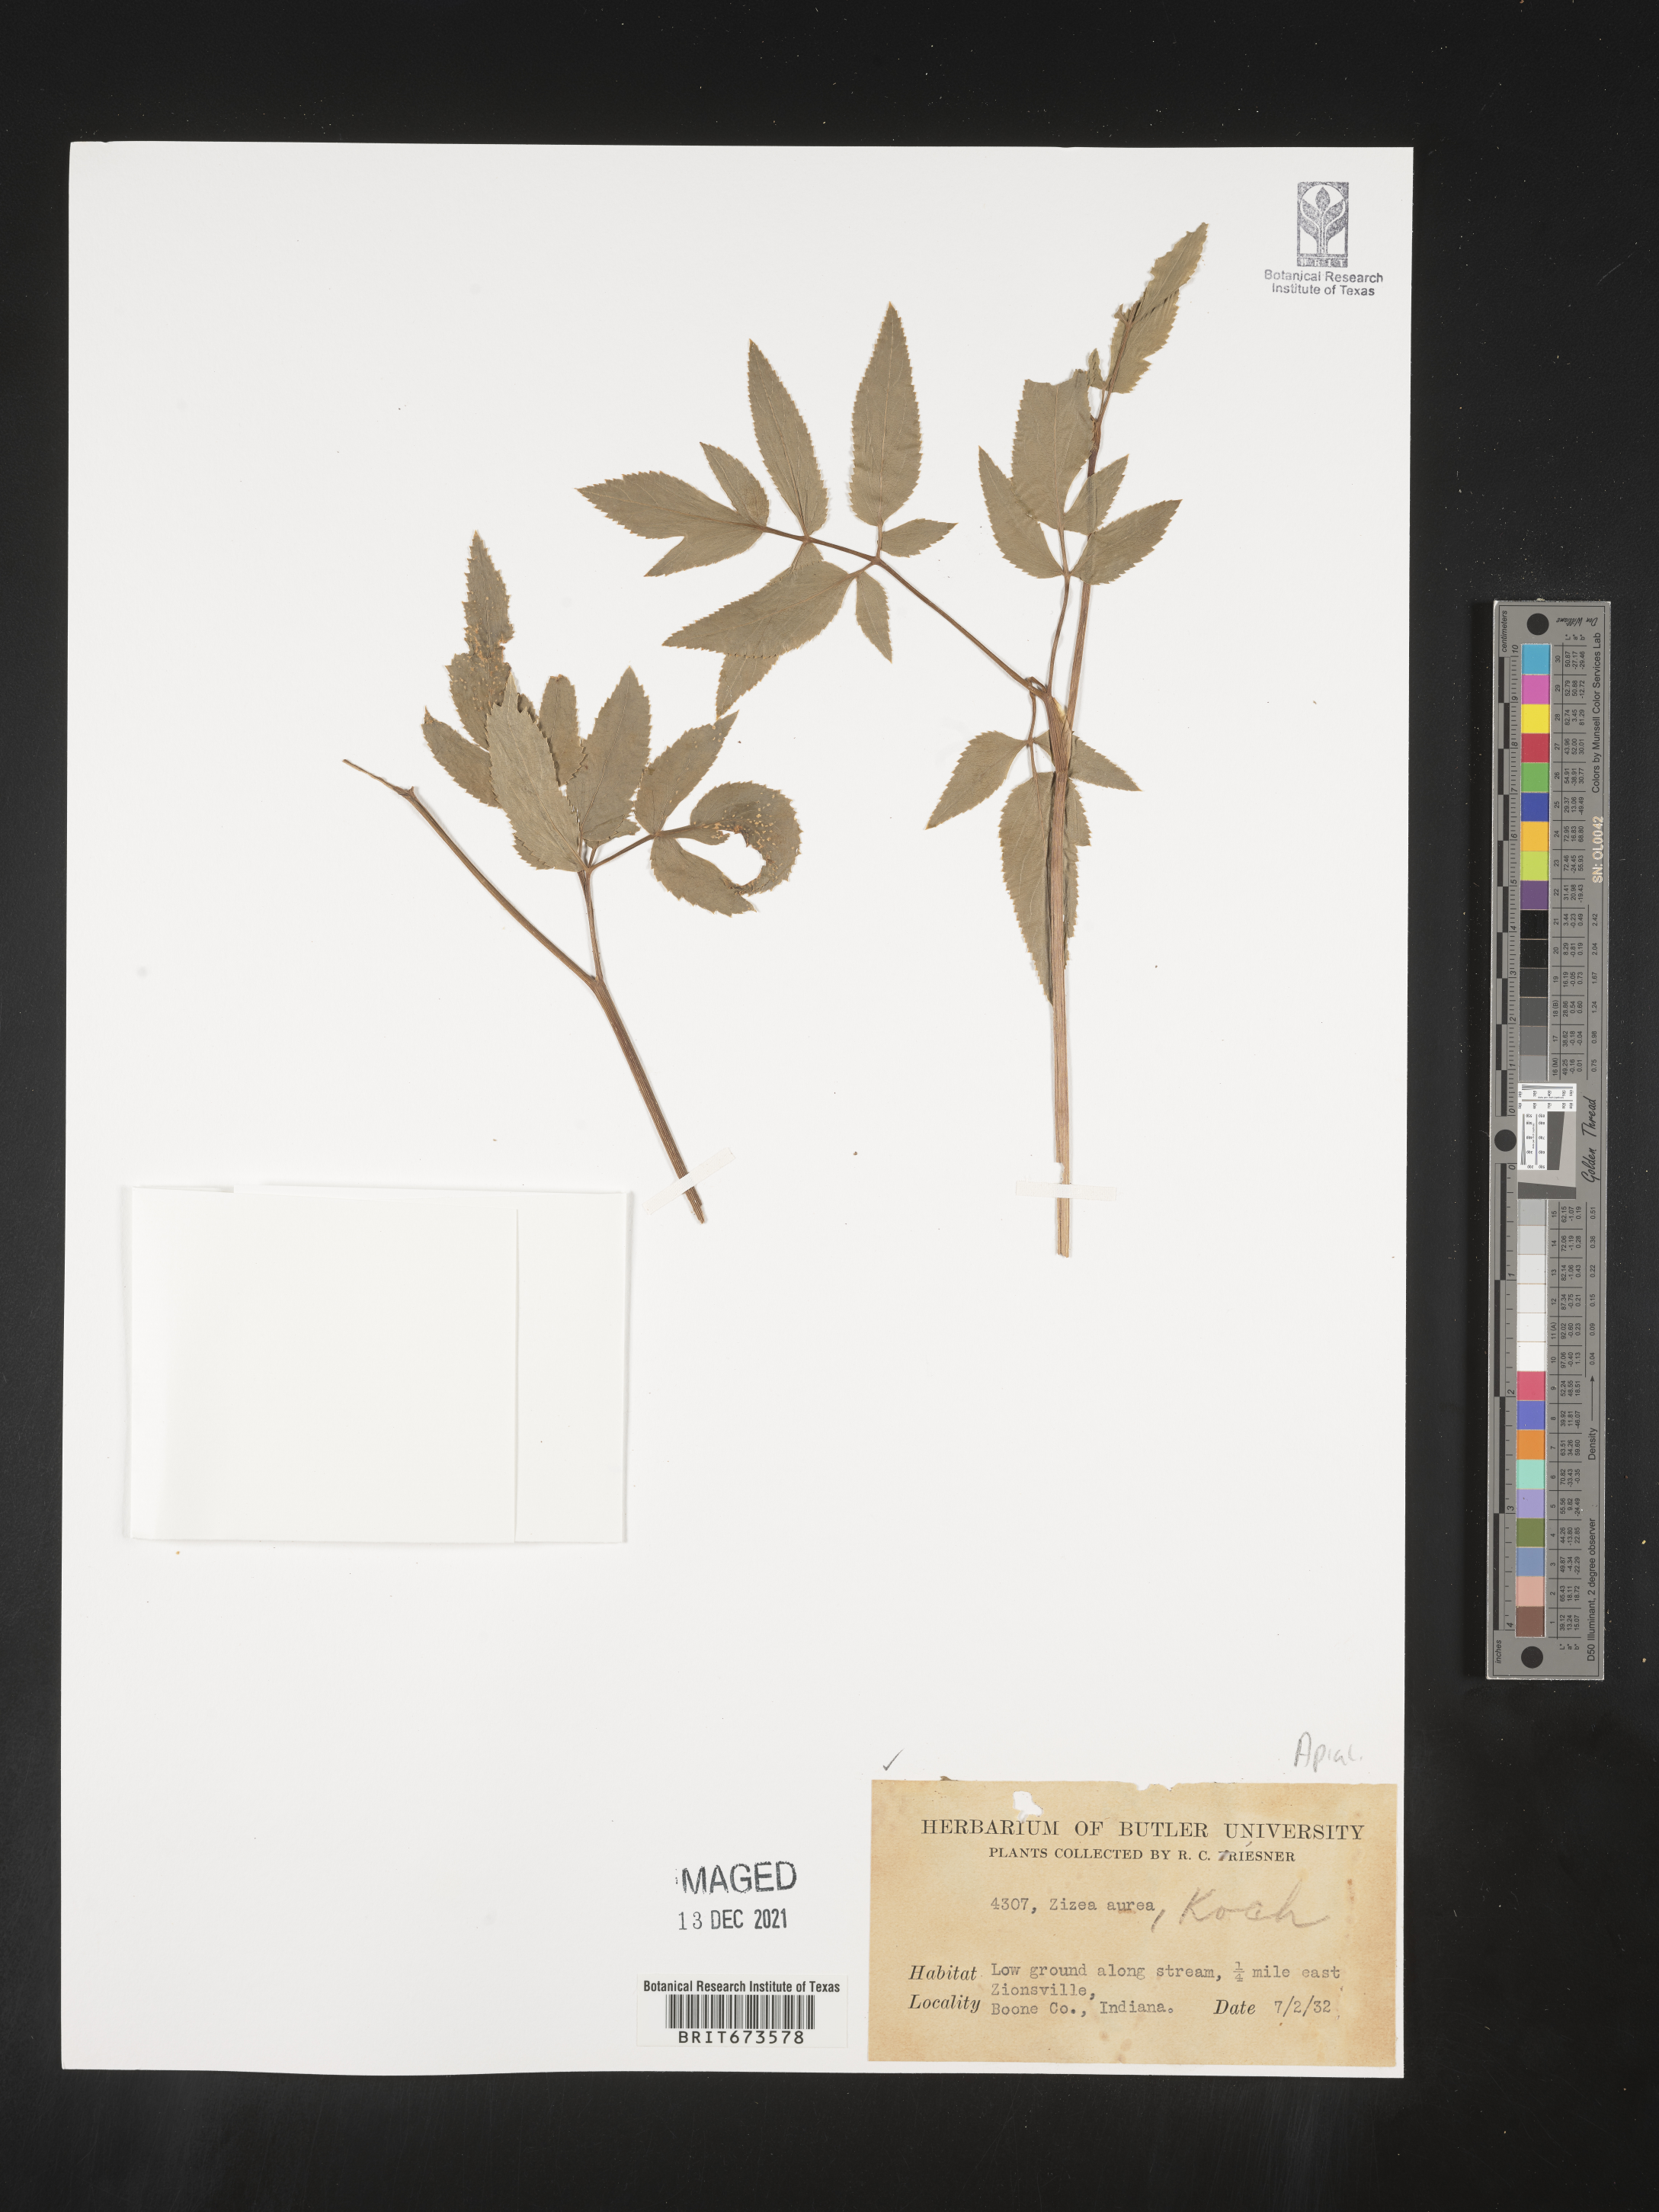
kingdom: Plantae
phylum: Tracheophyta
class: Magnoliopsida
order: Apiales
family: Apiaceae
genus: Zizia
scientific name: Zizia aurea
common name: Golden alexanders
